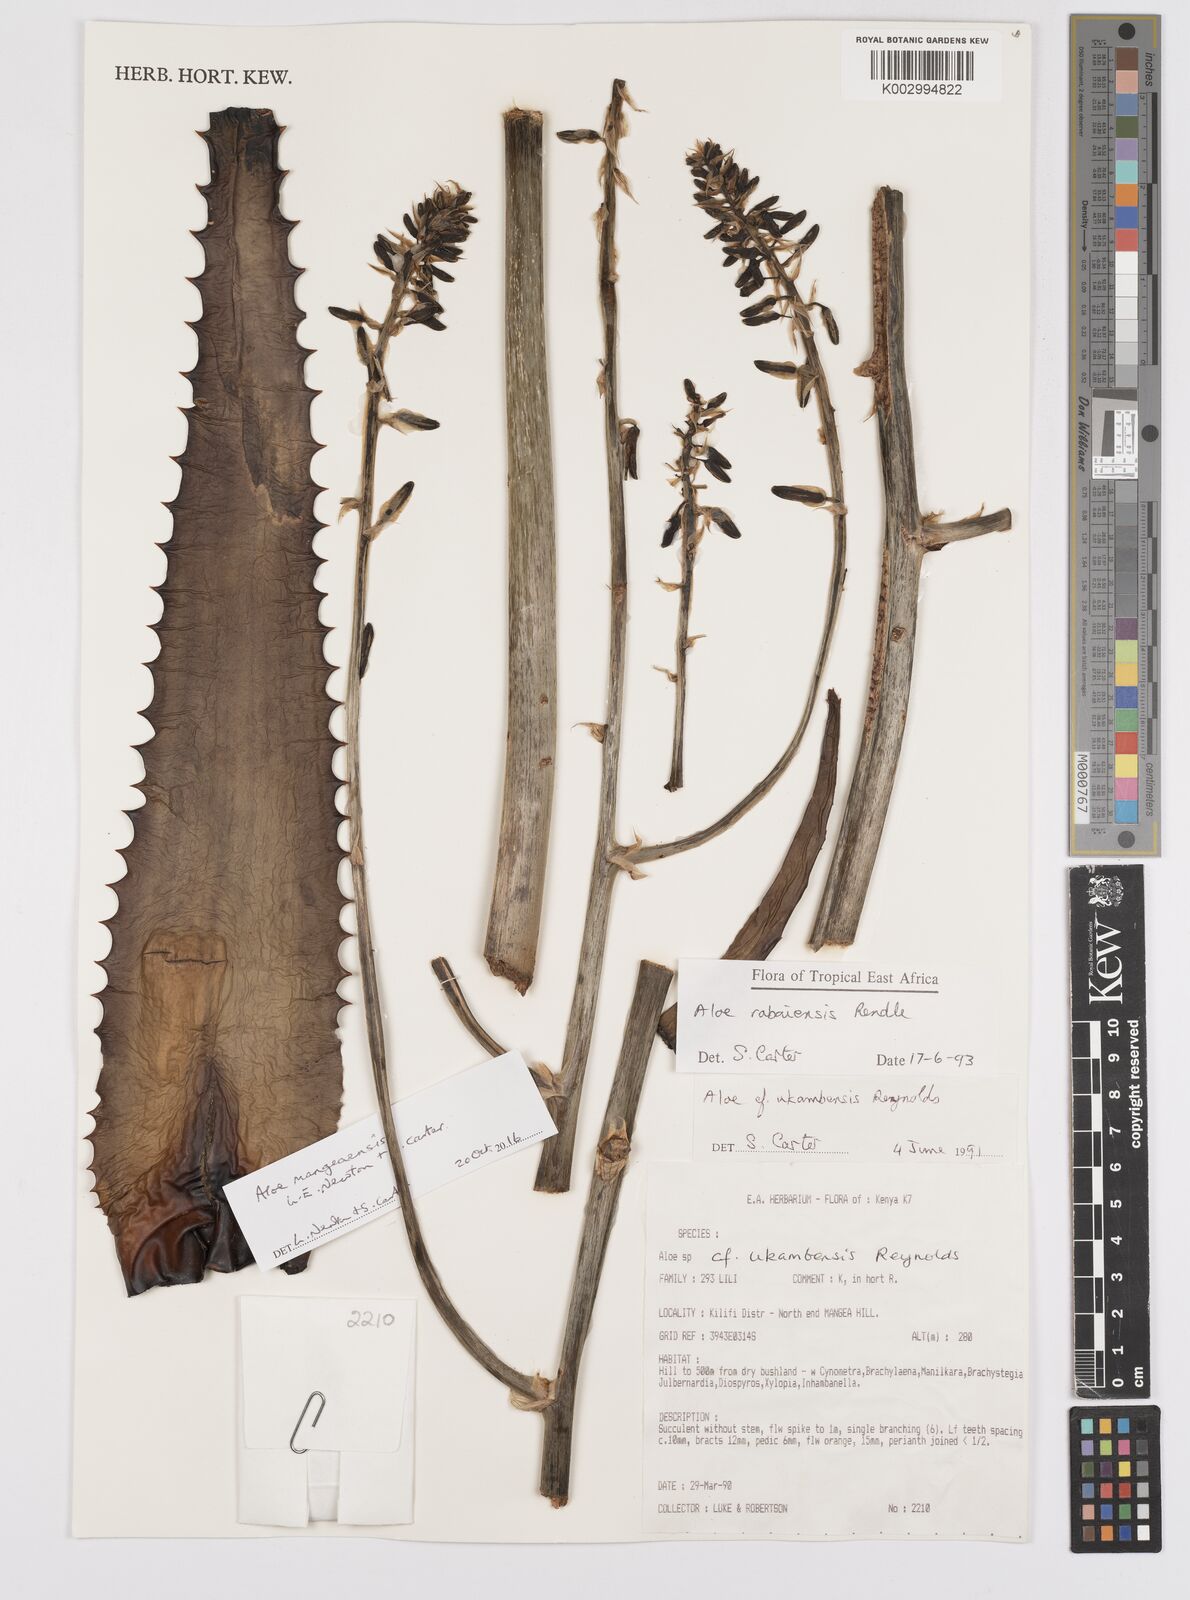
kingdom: Plantae
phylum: Tracheophyta
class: Liliopsida
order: Asparagales
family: Asphodelaceae
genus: Aloe
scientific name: Aloe rabaiensis
